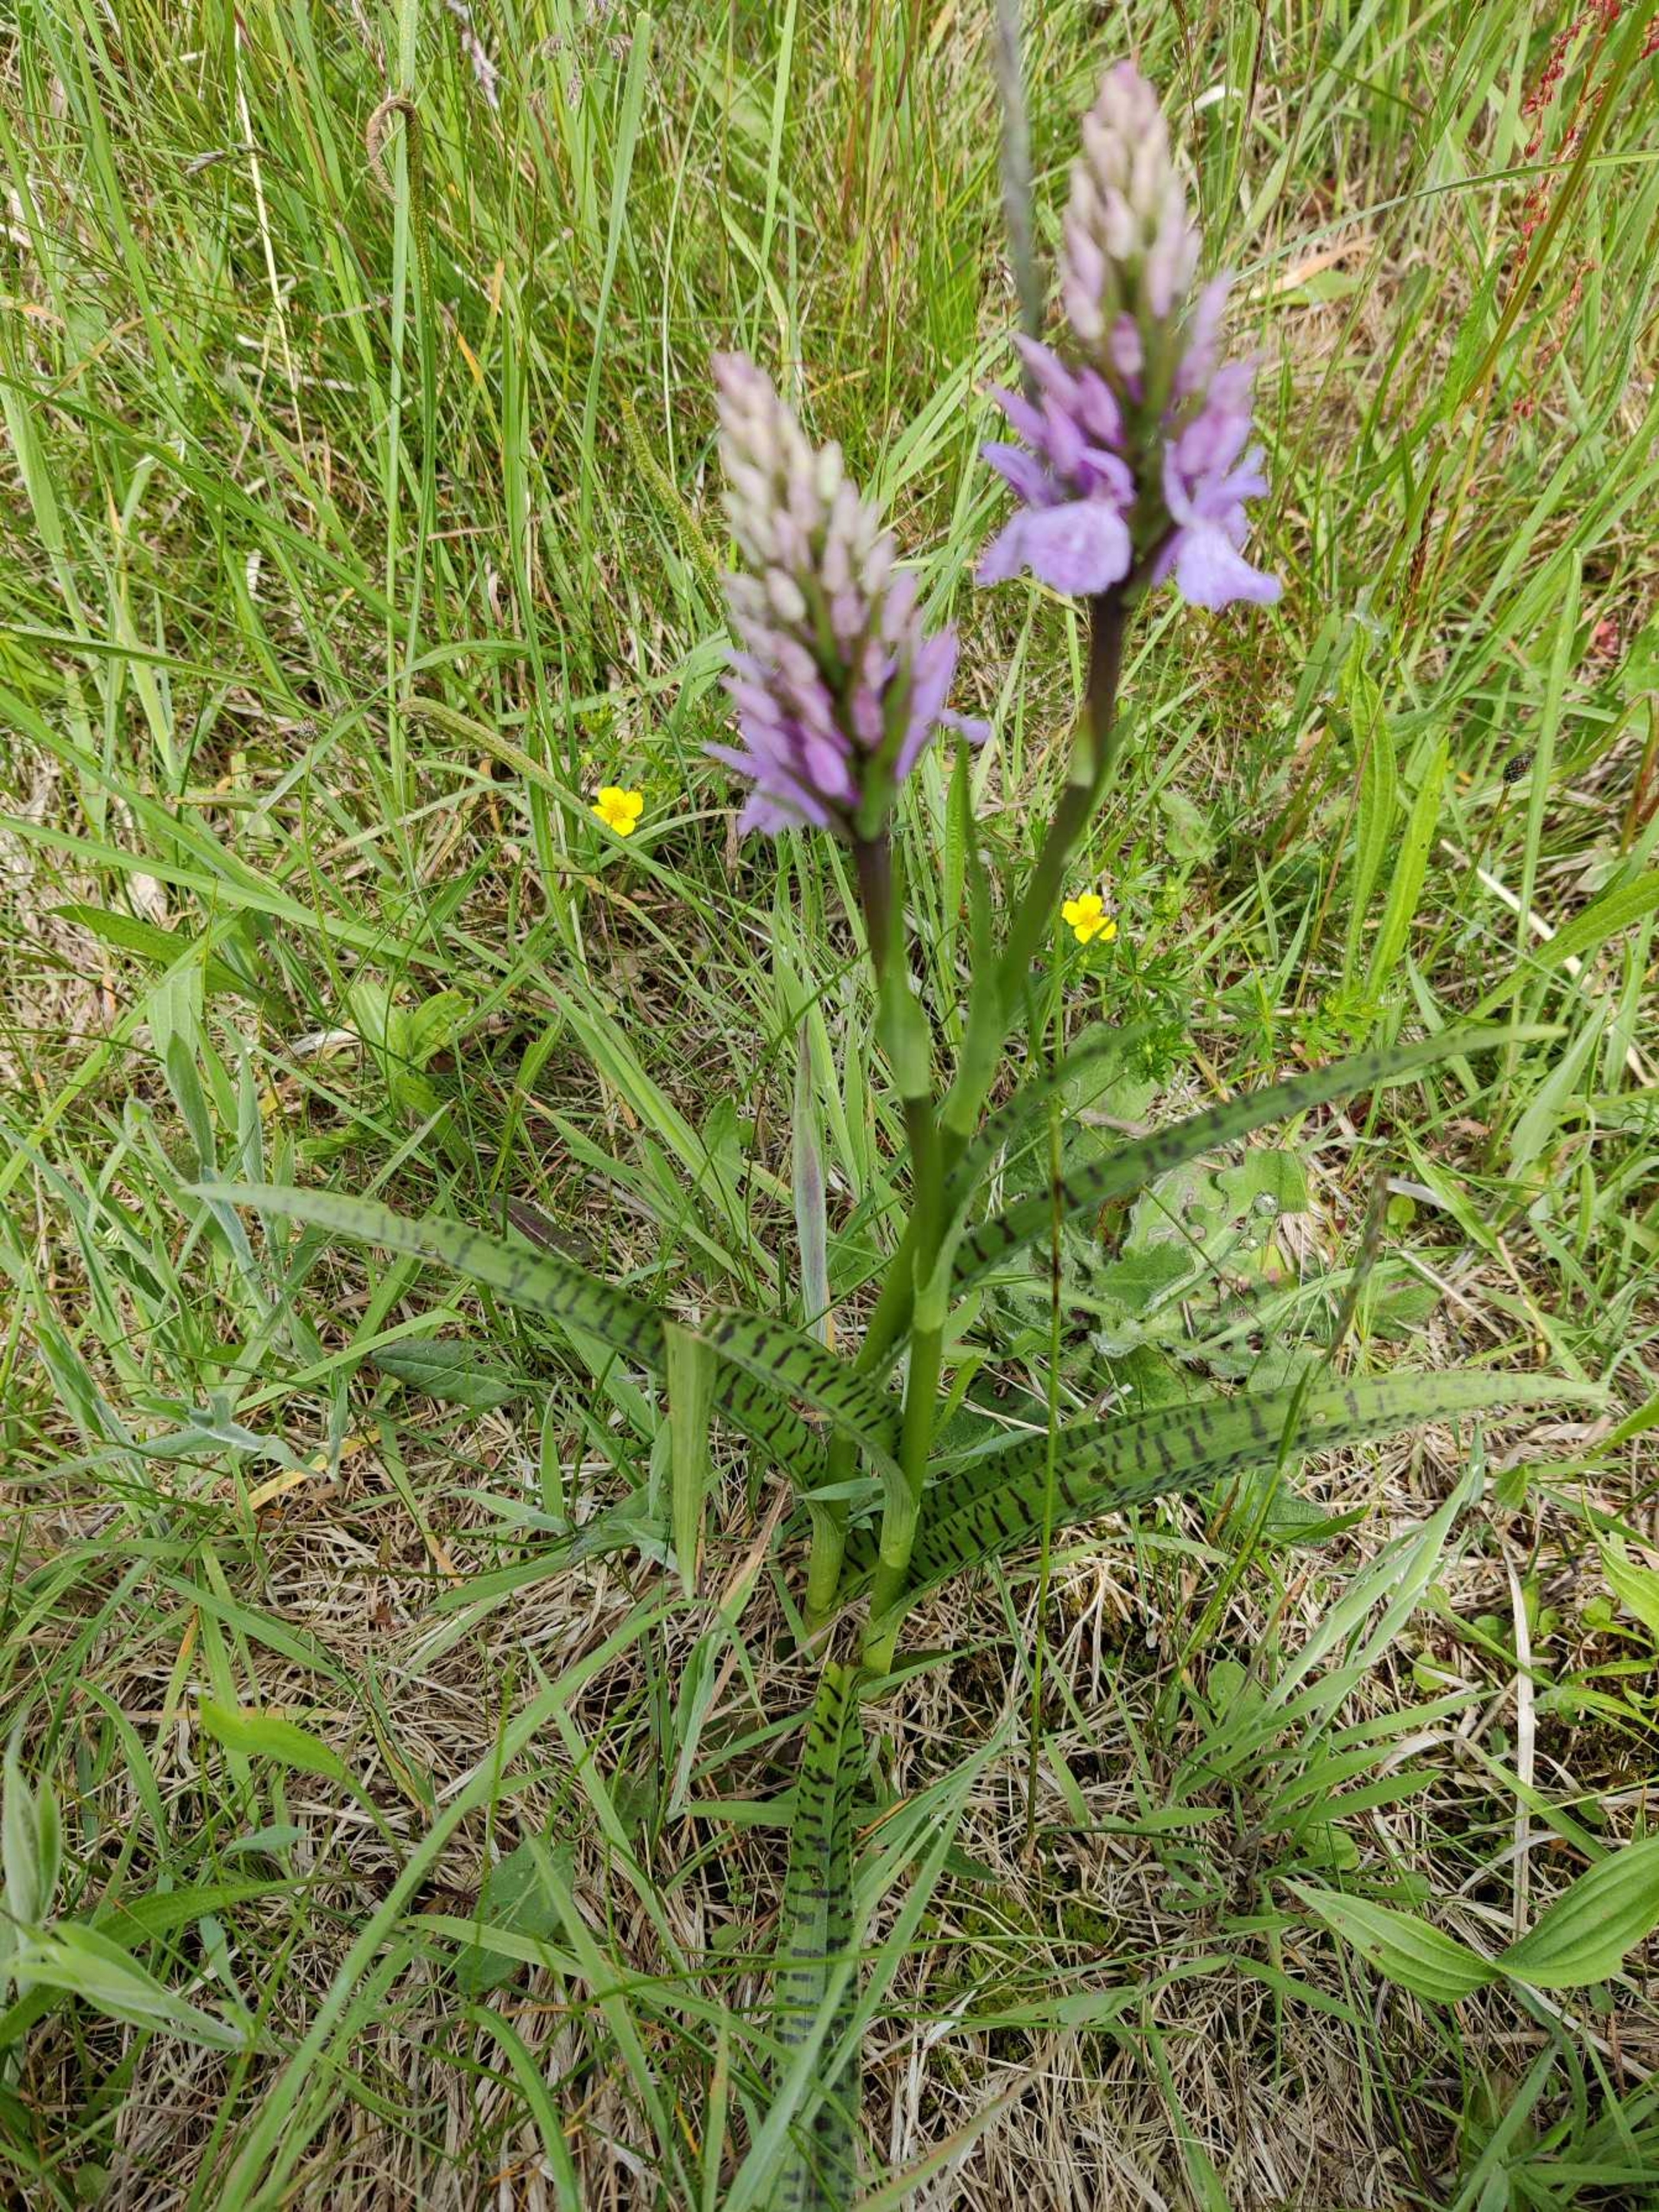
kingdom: Plantae
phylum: Tracheophyta
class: Liliopsida
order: Asparagales
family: Orchidaceae
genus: Dactylorhiza
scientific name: Dactylorhiza maculata
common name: Plettet gøgeurt
